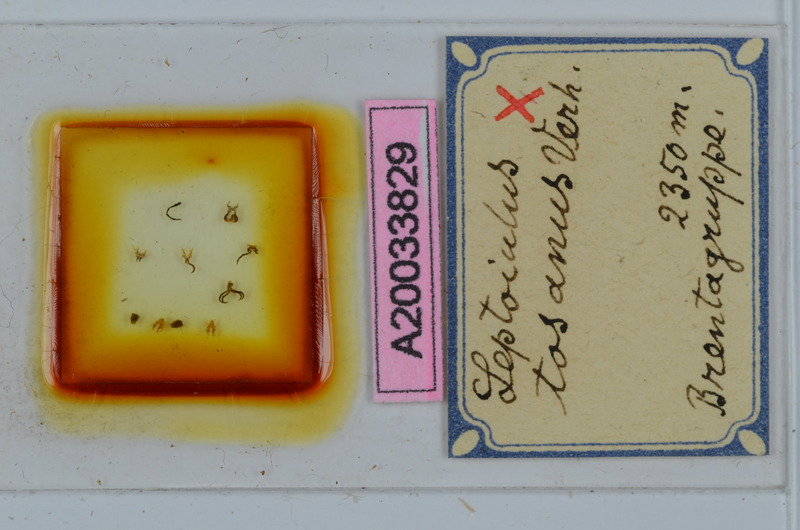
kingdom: Animalia
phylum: Arthropoda
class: Diplopoda
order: Julida
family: Julidae
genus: Leptoiulus
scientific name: Leptoiulus tosanus
